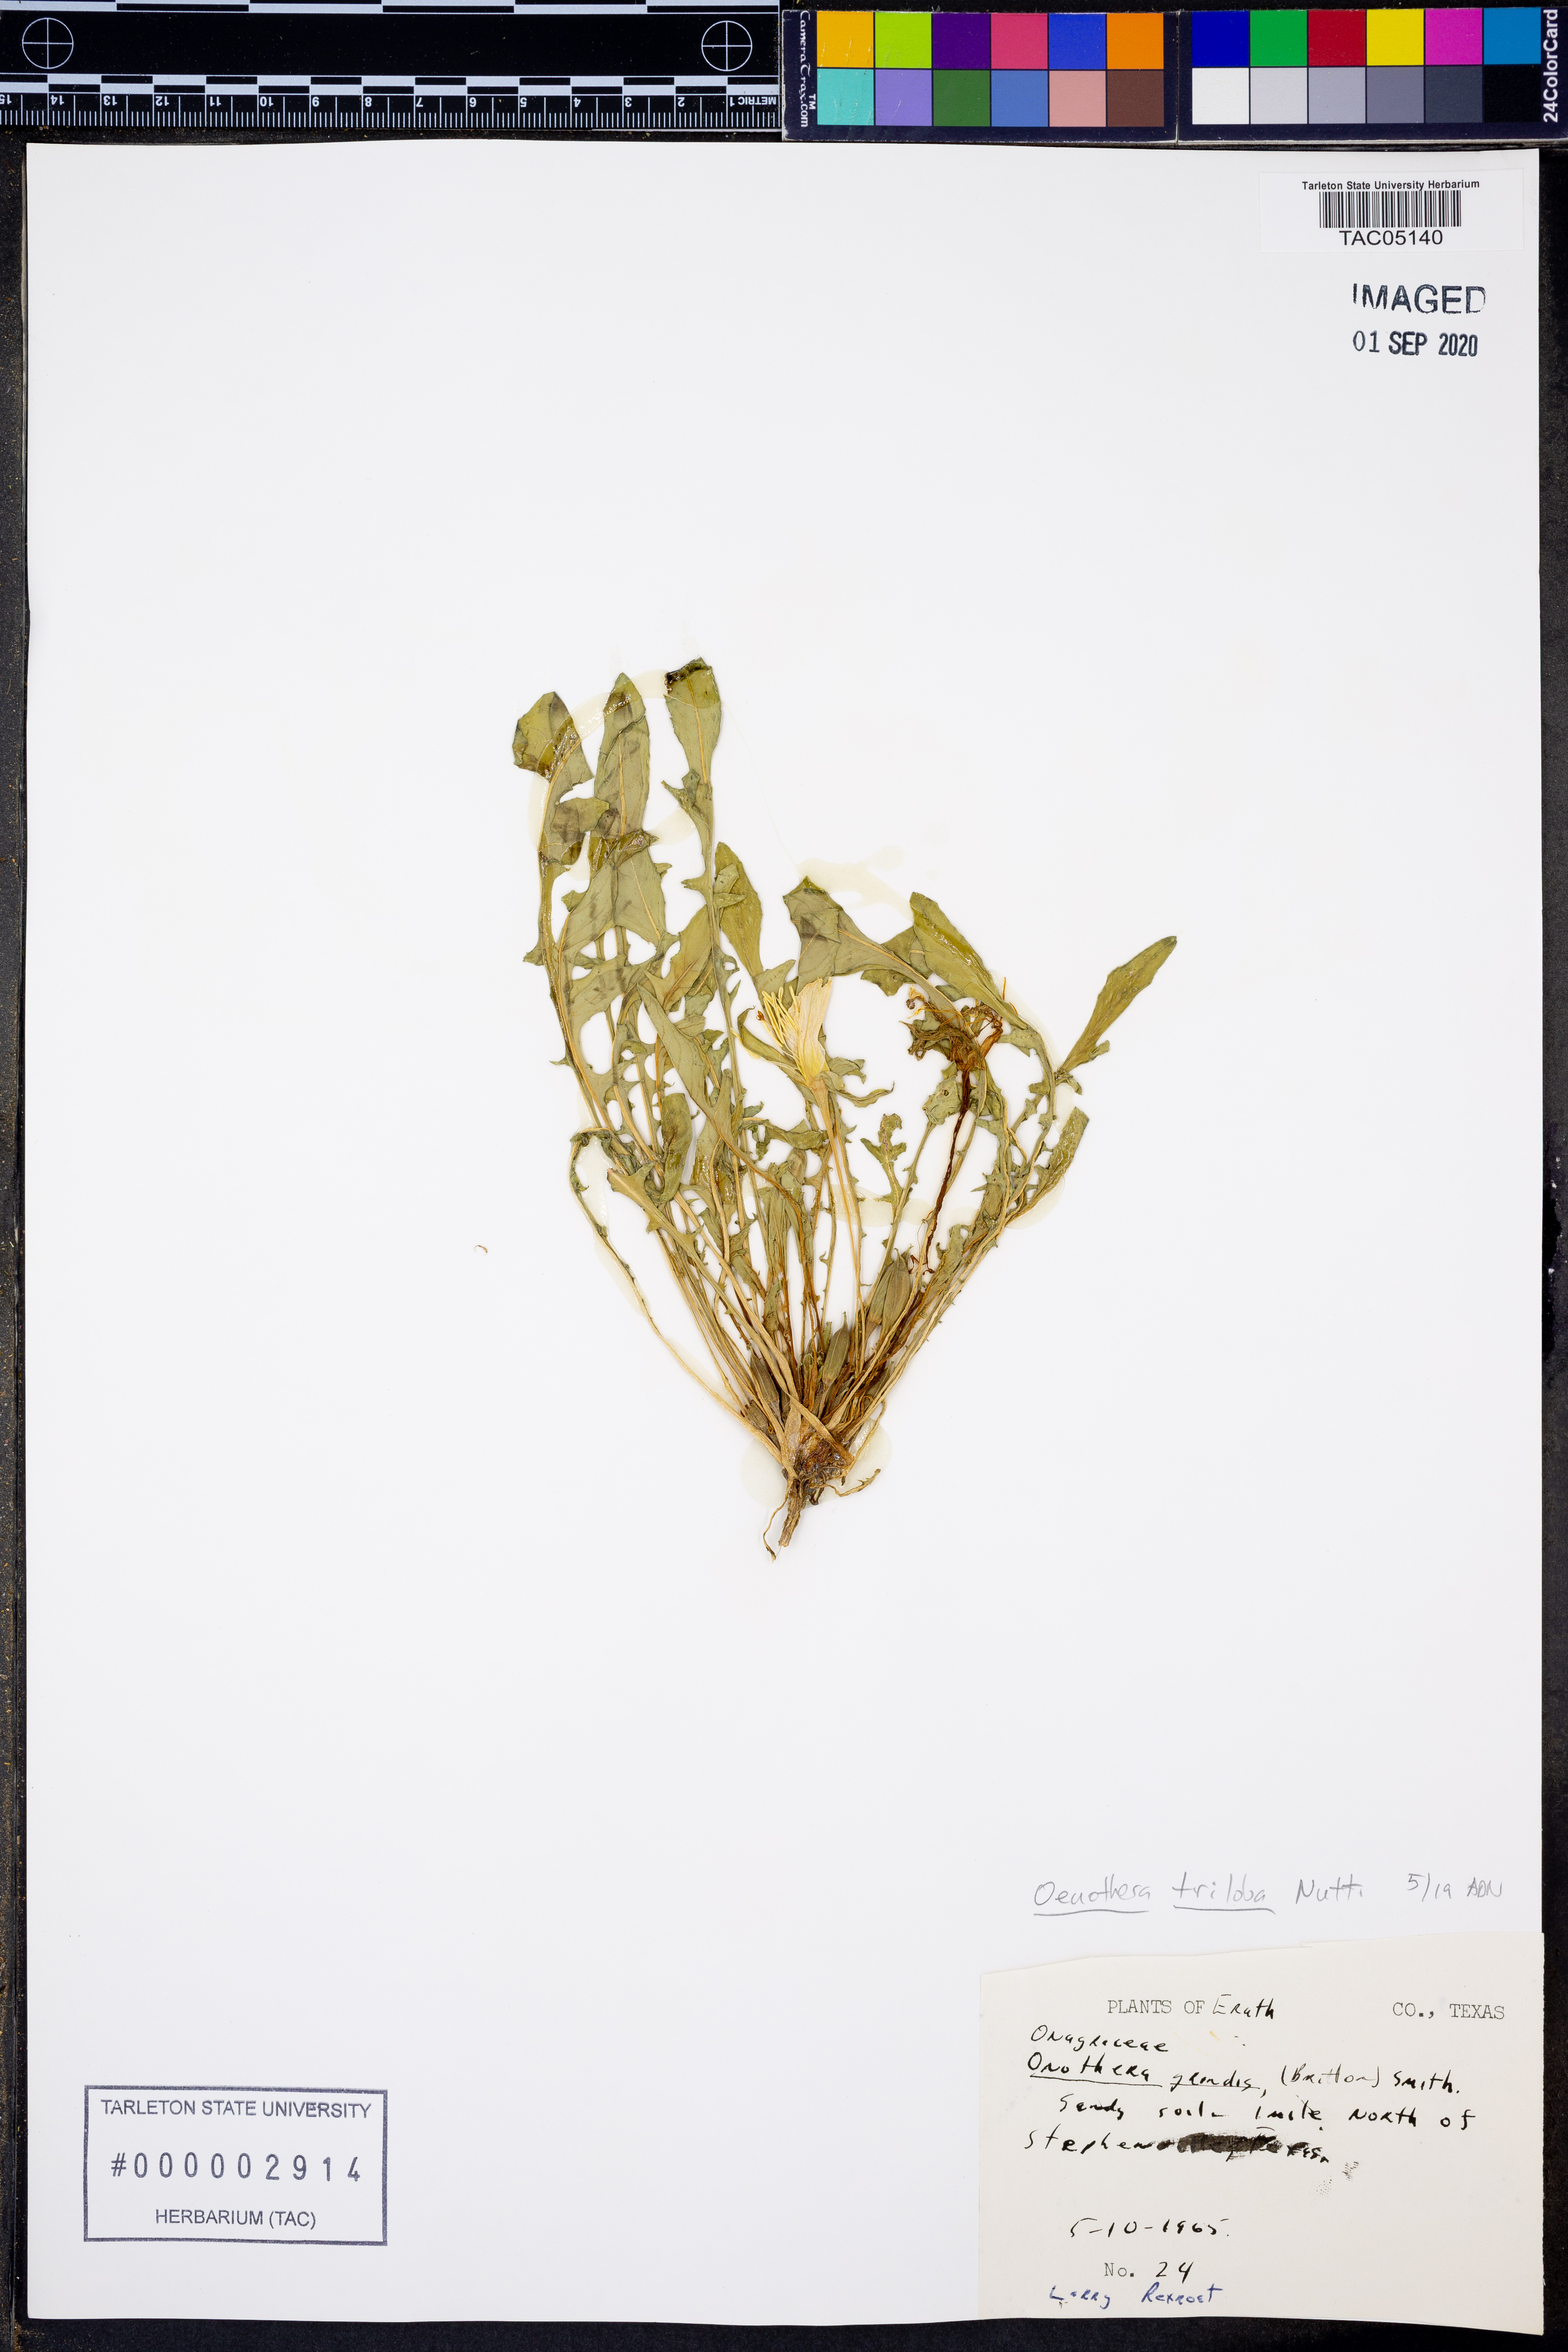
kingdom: Plantae
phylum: Tracheophyta
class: Magnoliopsida
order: Myrtales
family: Onagraceae
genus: Oenothera
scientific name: Oenothera triloba
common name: Sessile evening-primrose
